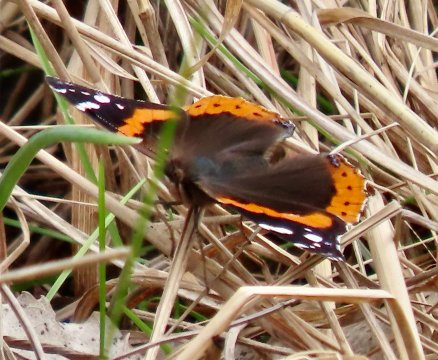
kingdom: Animalia
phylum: Arthropoda
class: Insecta
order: Lepidoptera
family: Nymphalidae
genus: Vanessa
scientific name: Vanessa atalanta
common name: Red Admiral
